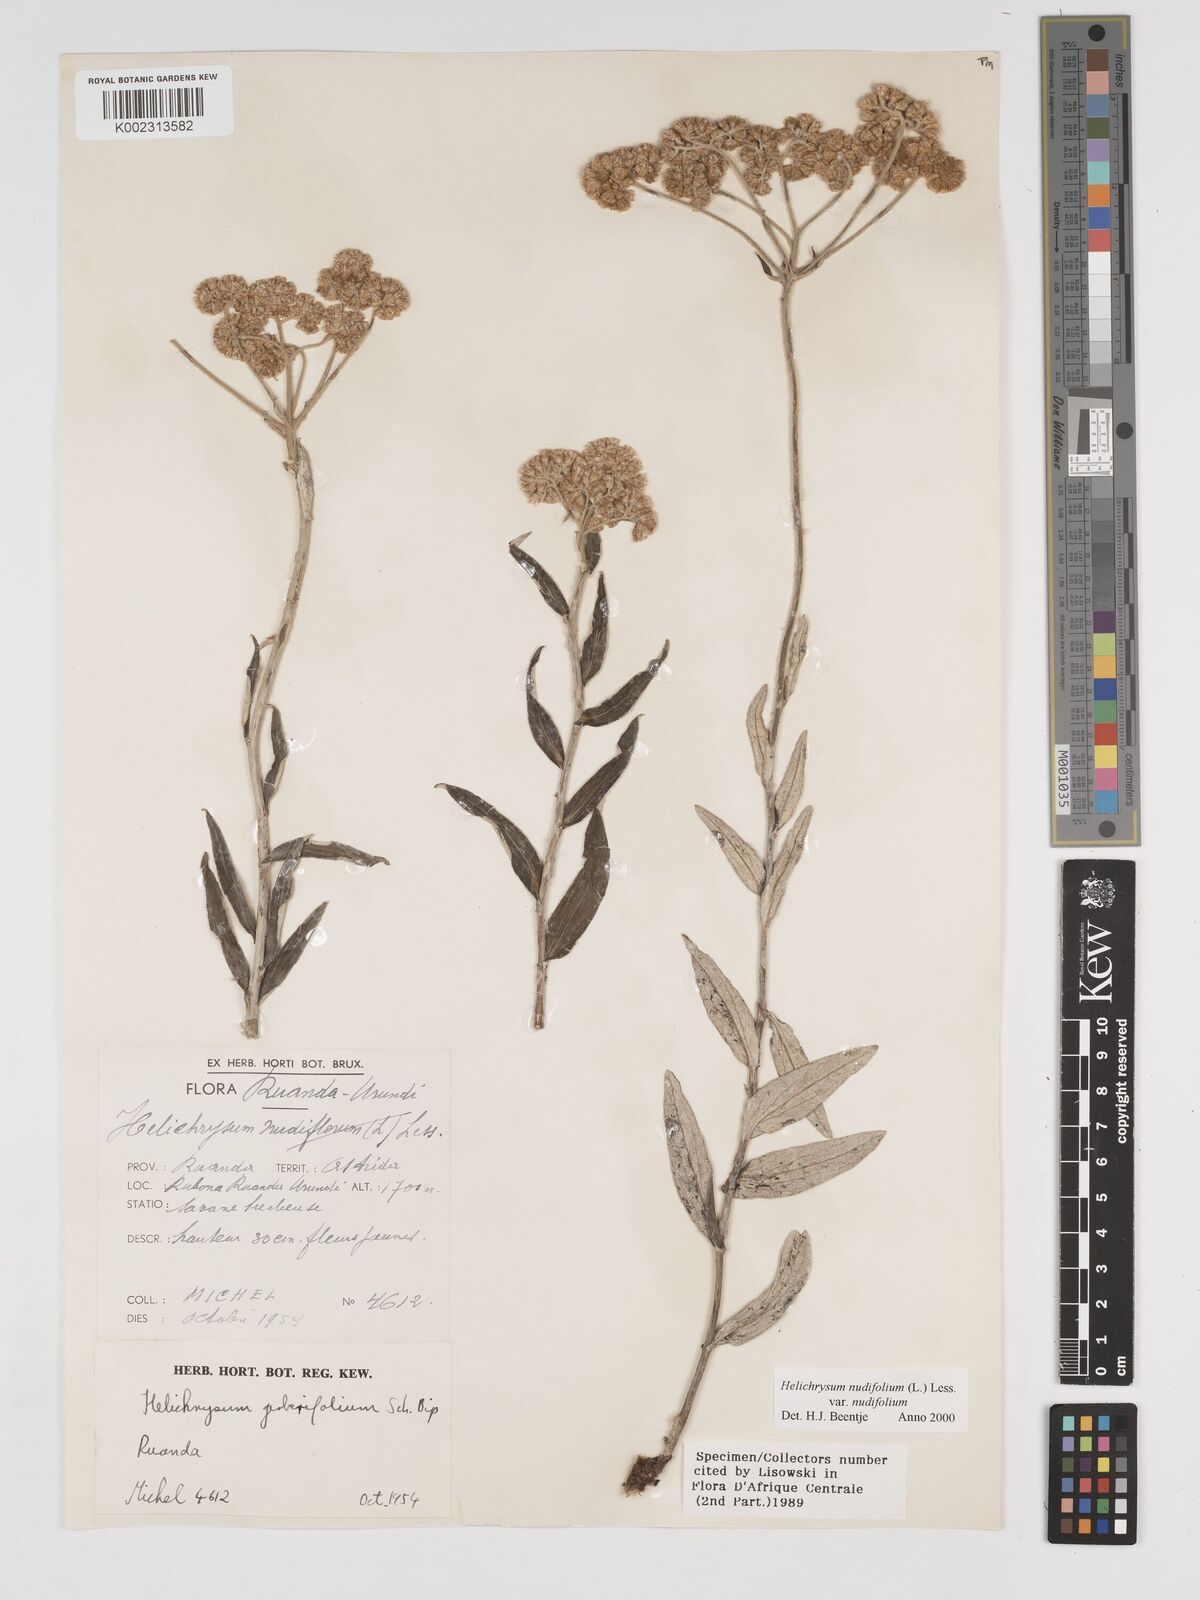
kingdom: Plantae
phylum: Tracheophyta
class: Magnoliopsida
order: Asterales
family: Asteraceae
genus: Helichrysum
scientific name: Helichrysum nudifolium
